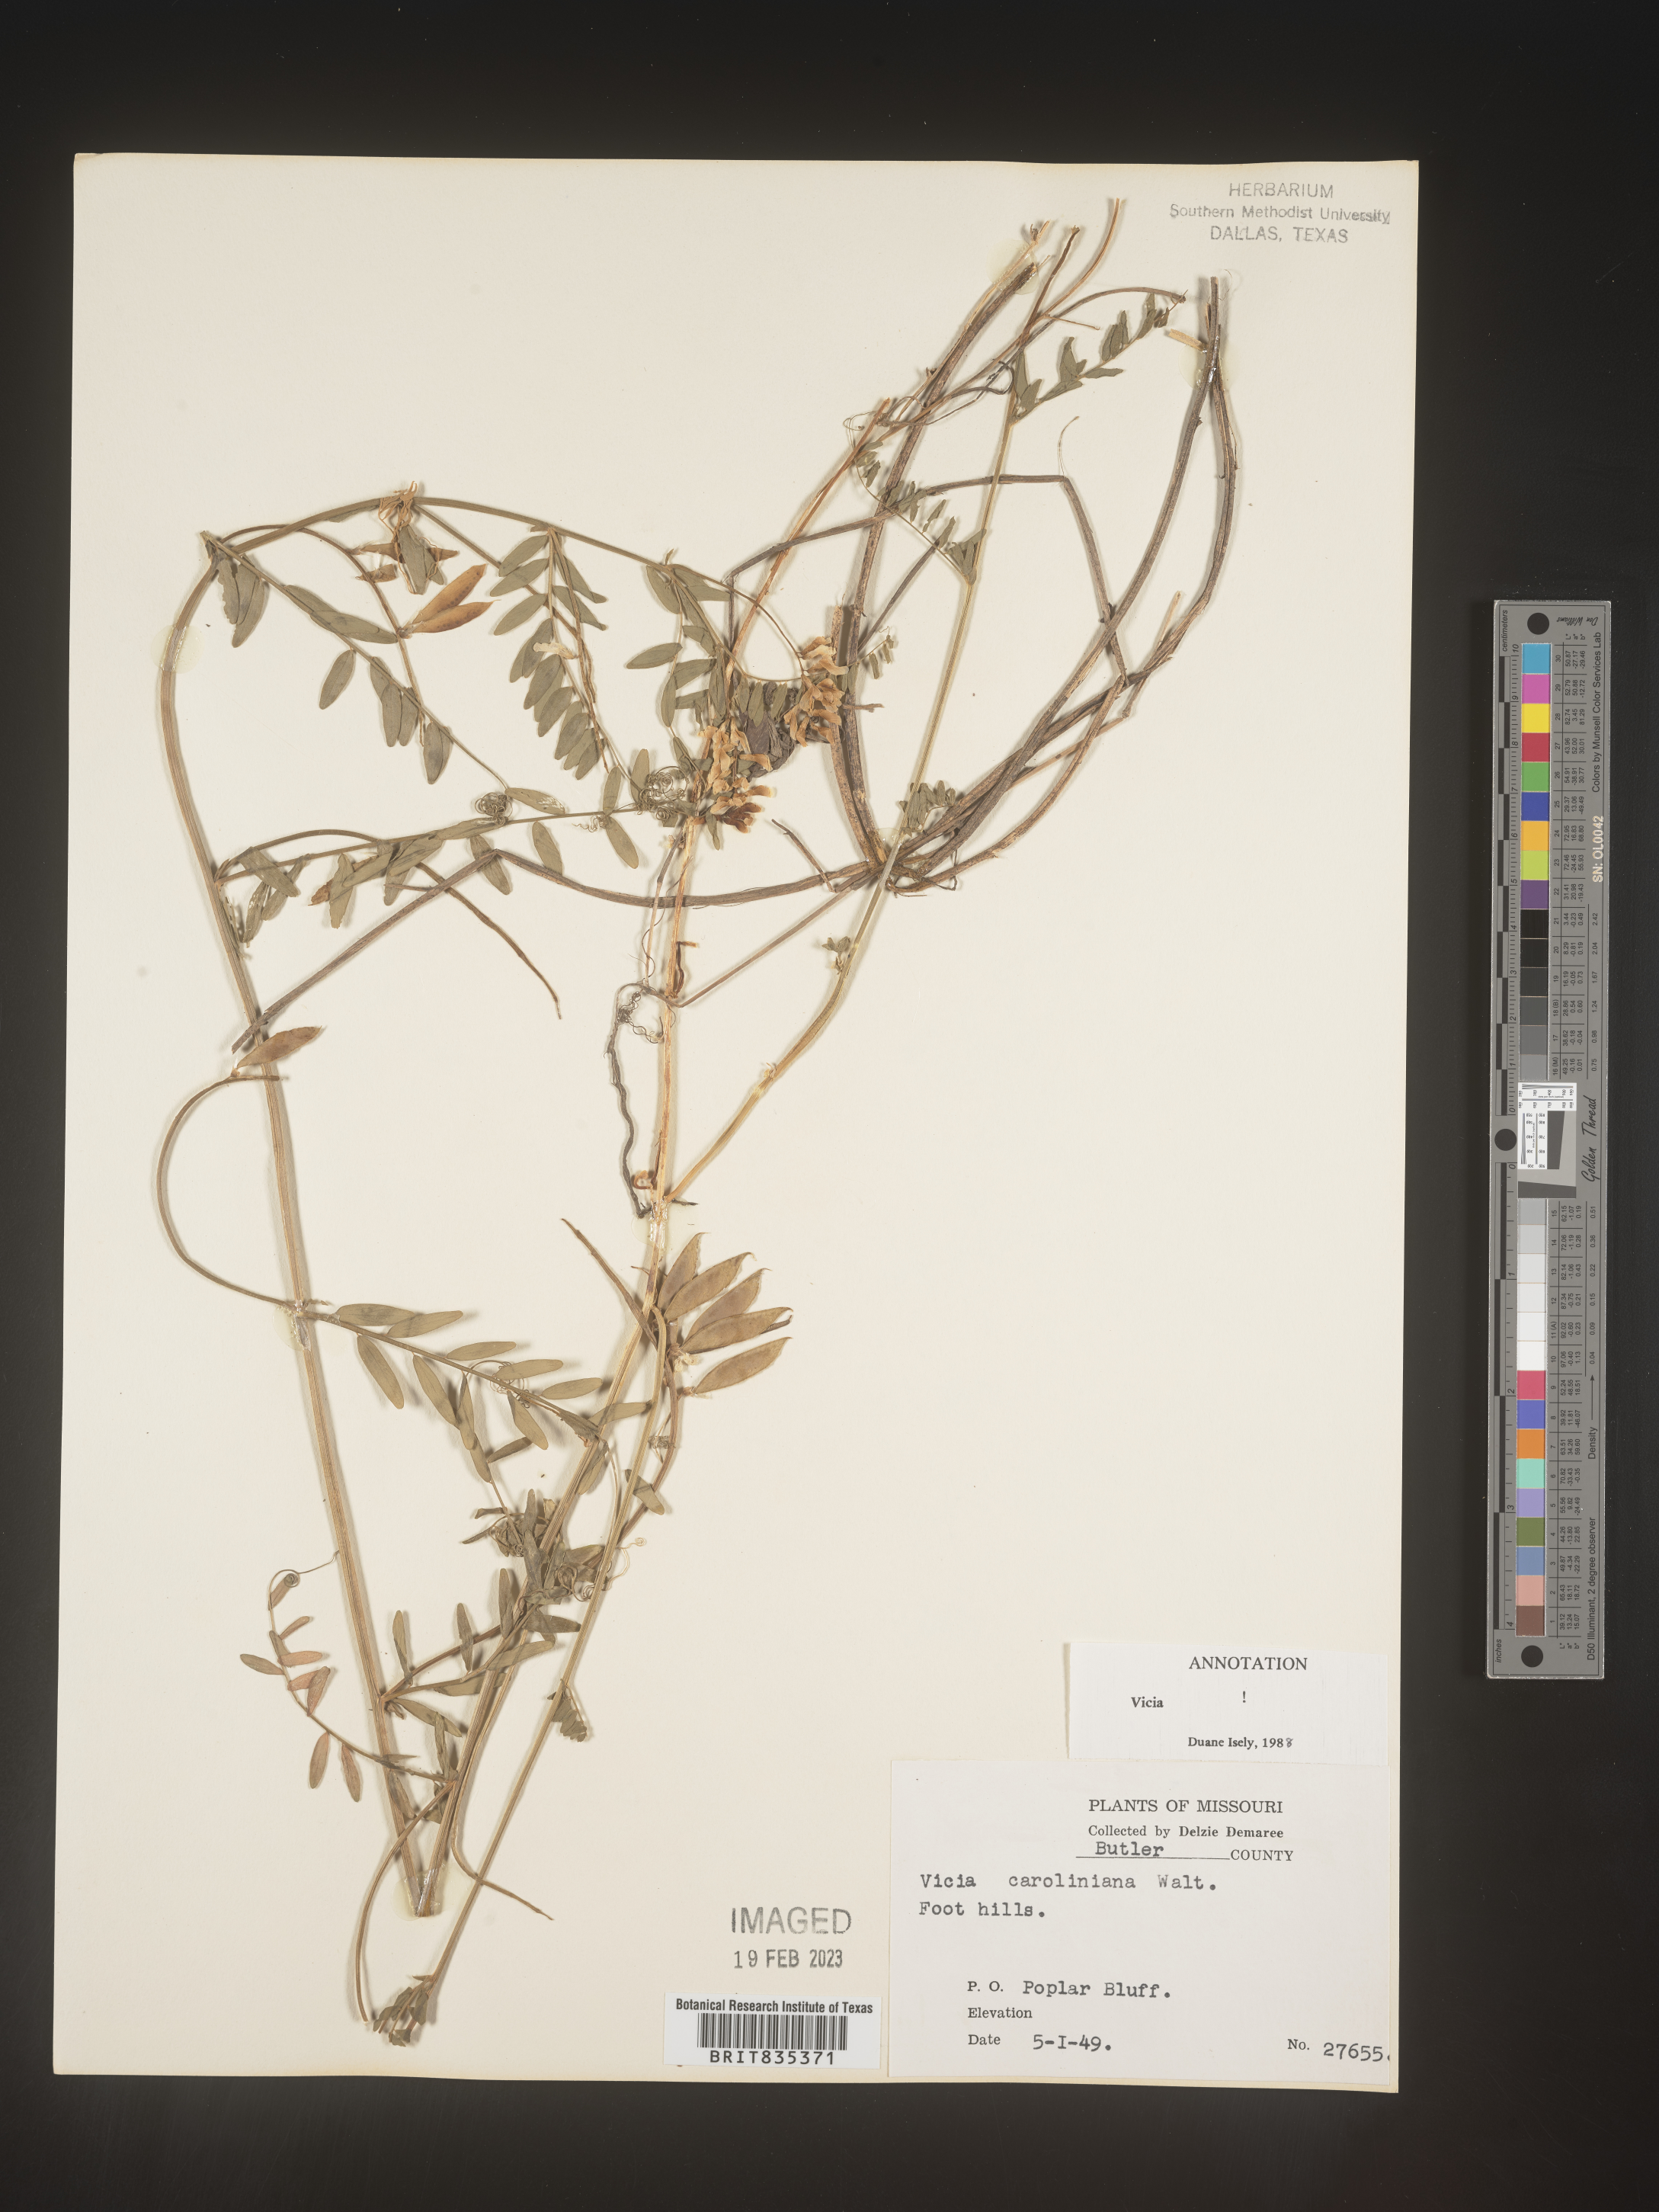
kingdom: Plantae
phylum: Tracheophyta
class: Magnoliopsida
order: Fabales
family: Fabaceae
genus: Vicia
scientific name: Vicia caroliniana
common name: Carolina vetch
